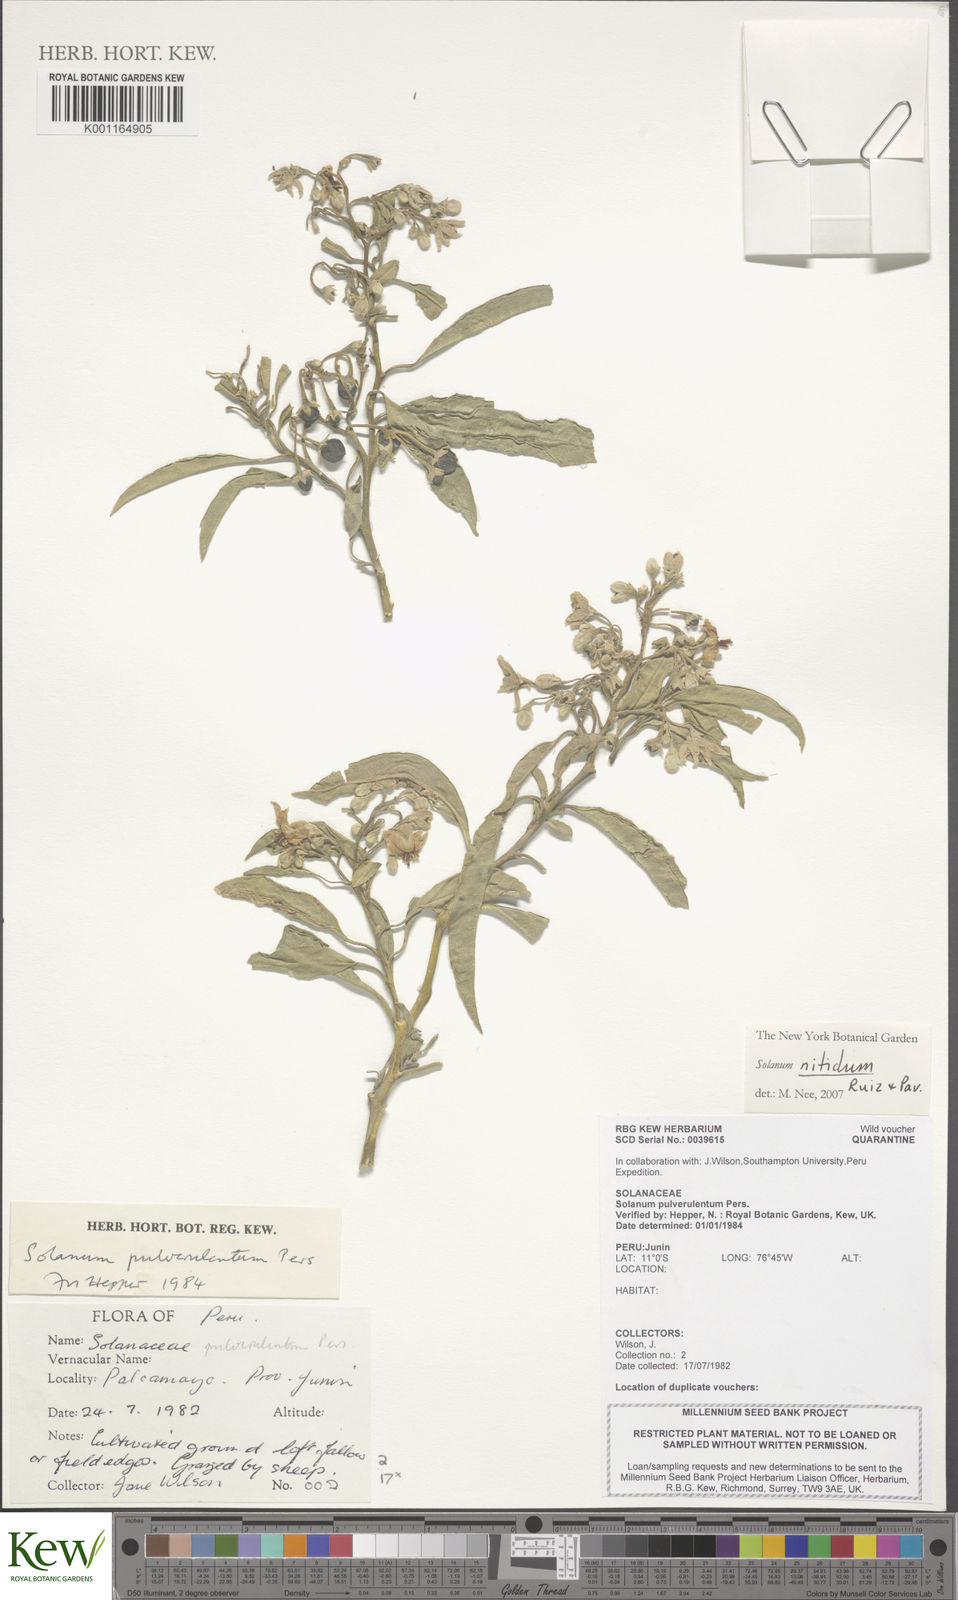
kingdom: Plantae
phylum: Tracheophyta
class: Magnoliopsida
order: Solanales
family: Solanaceae
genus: Solanum
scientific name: Solanum nitidum
